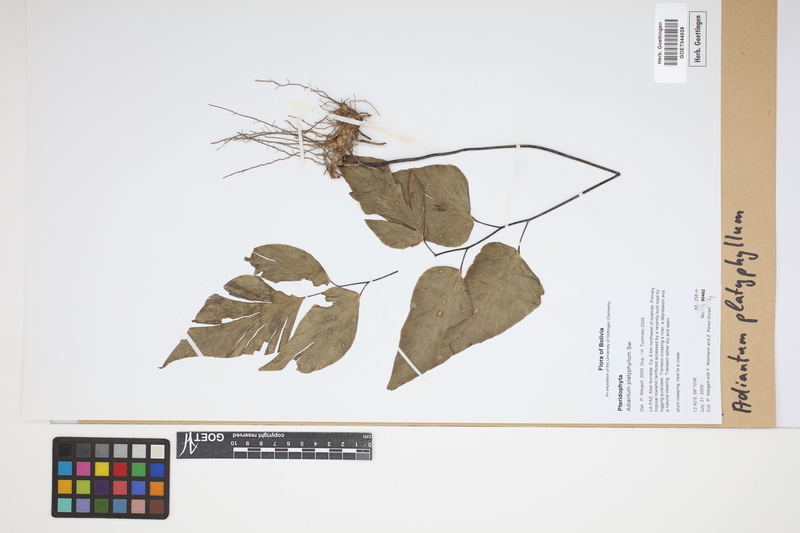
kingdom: Plantae
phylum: Tracheophyta
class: Polypodiopsida
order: Polypodiales
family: Pteridaceae
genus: Adiantum
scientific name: Adiantum platyphyllum
